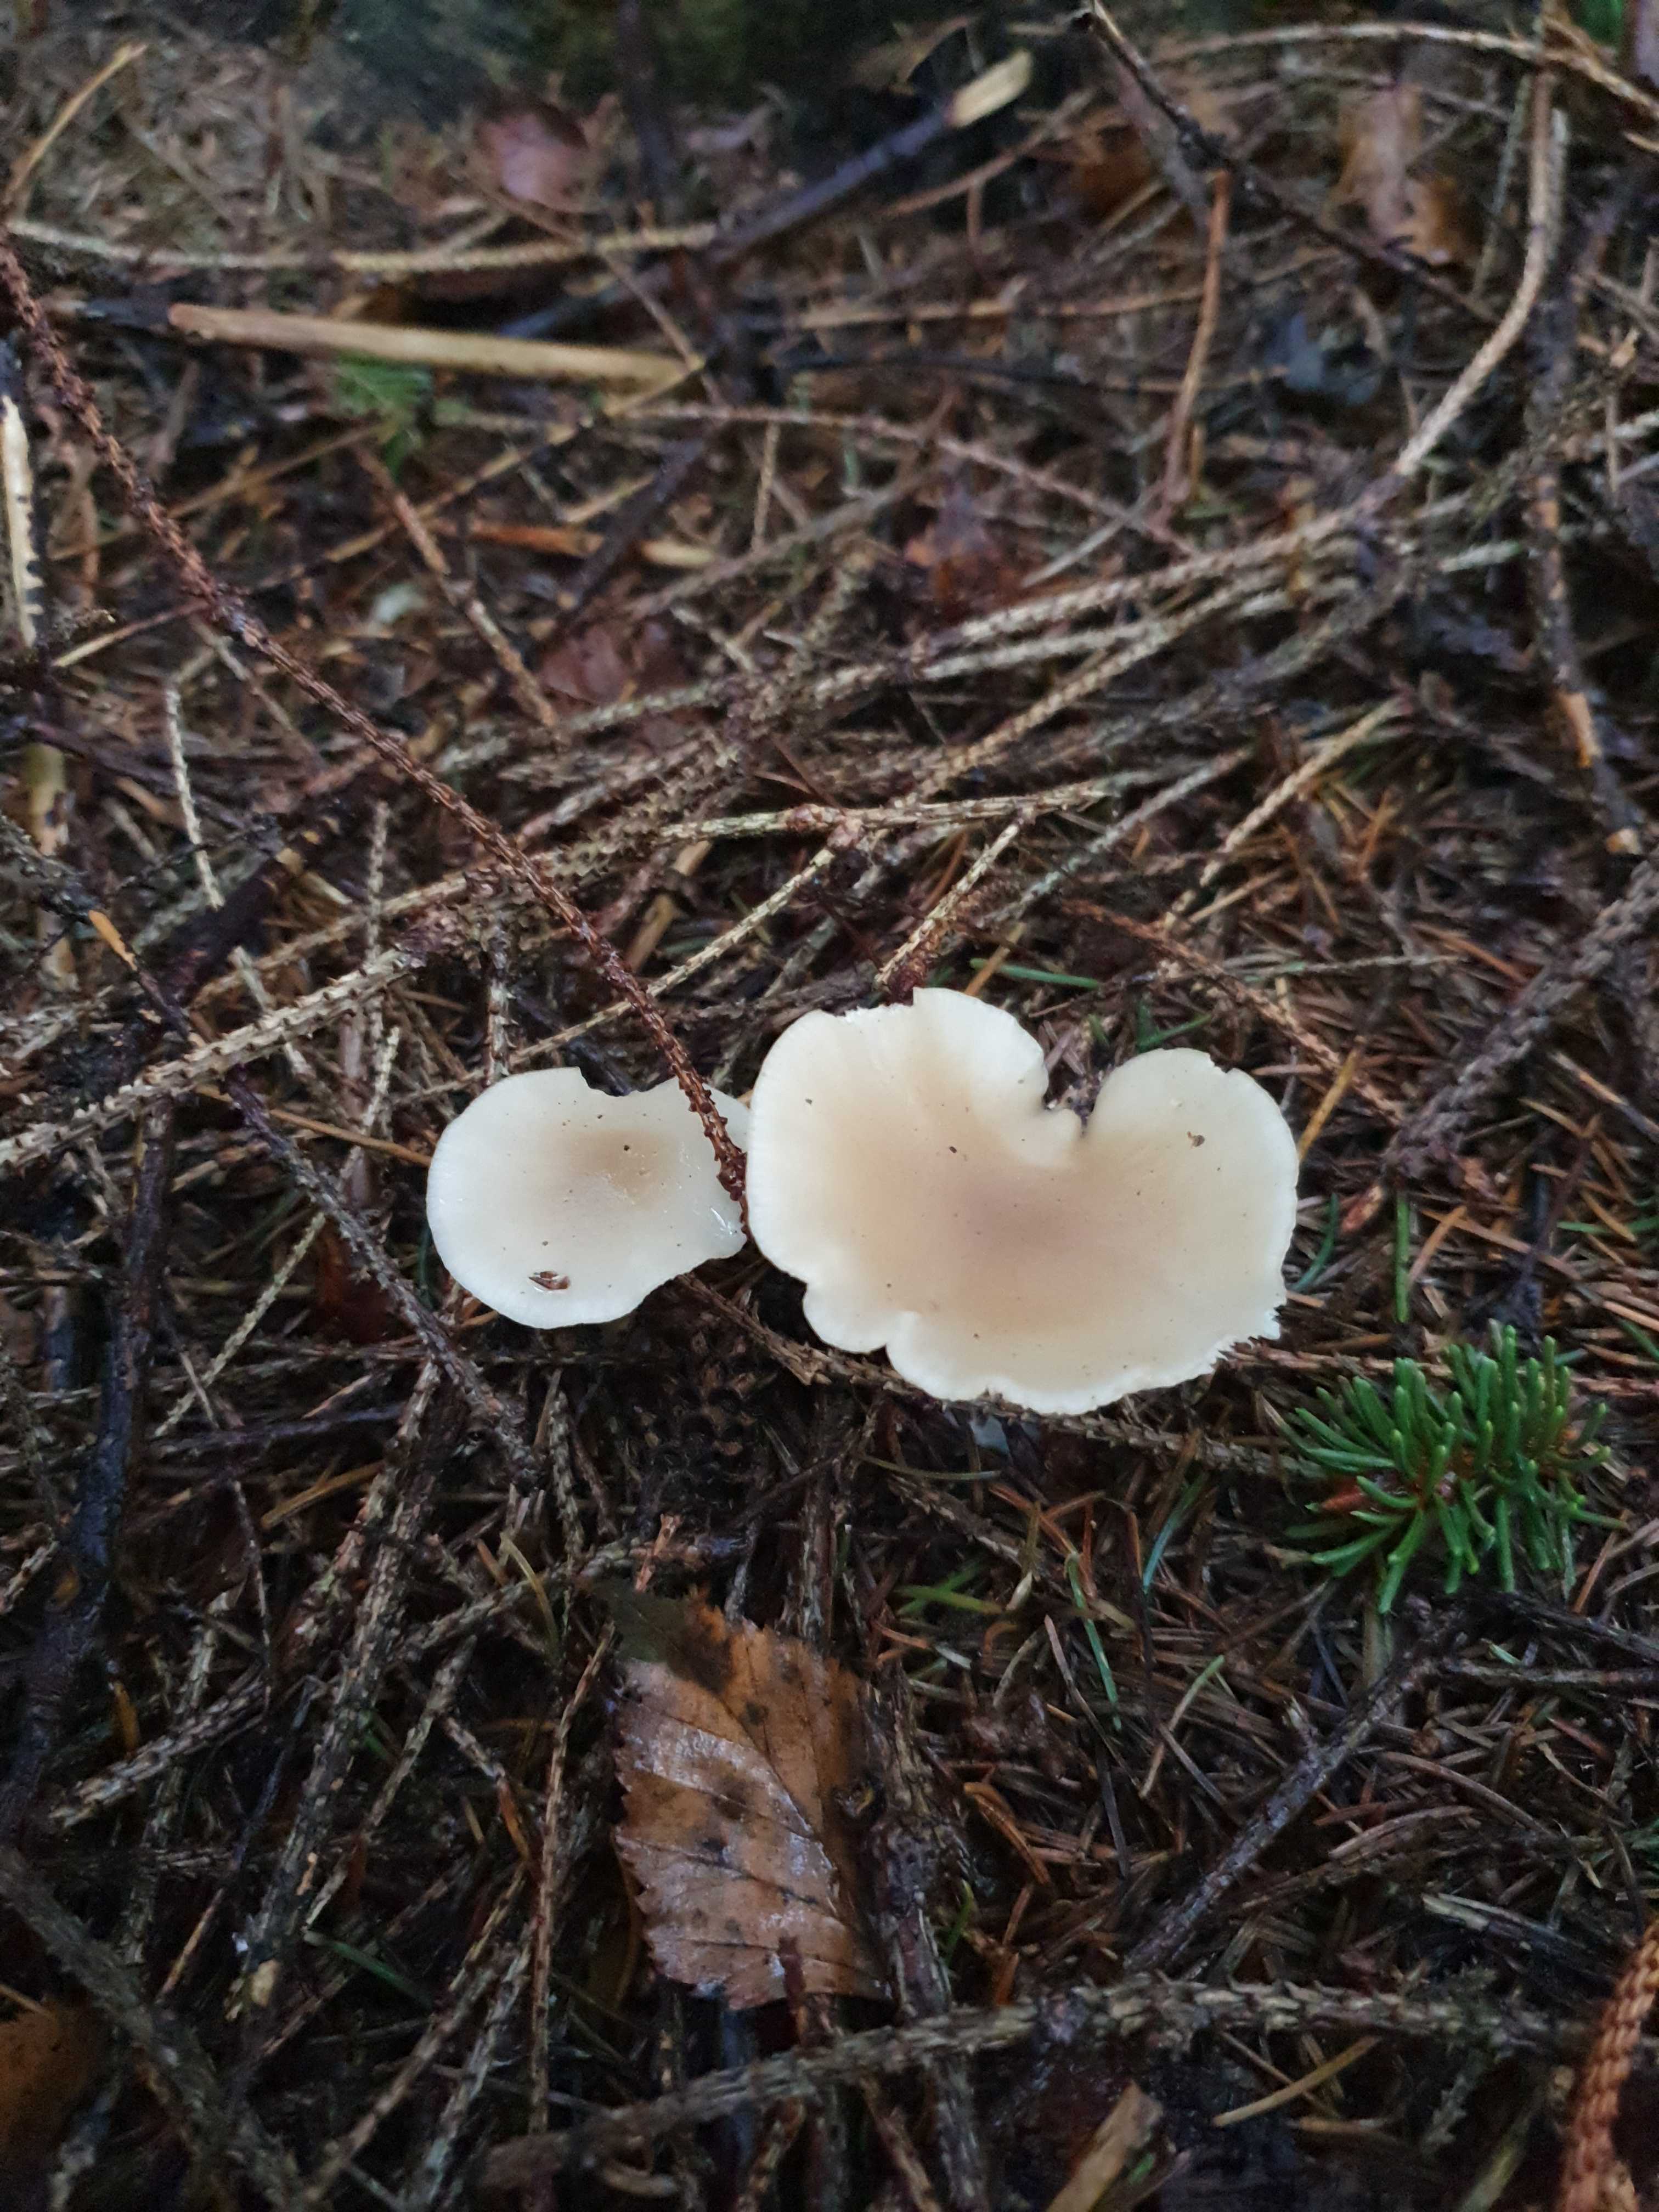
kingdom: Fungi
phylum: Basidiomycota
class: Agaricomycetes
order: Agaricales
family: Tricholomataceae
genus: Clitocybe
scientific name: Clitocybe fragrans
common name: vellugtende tragthat
